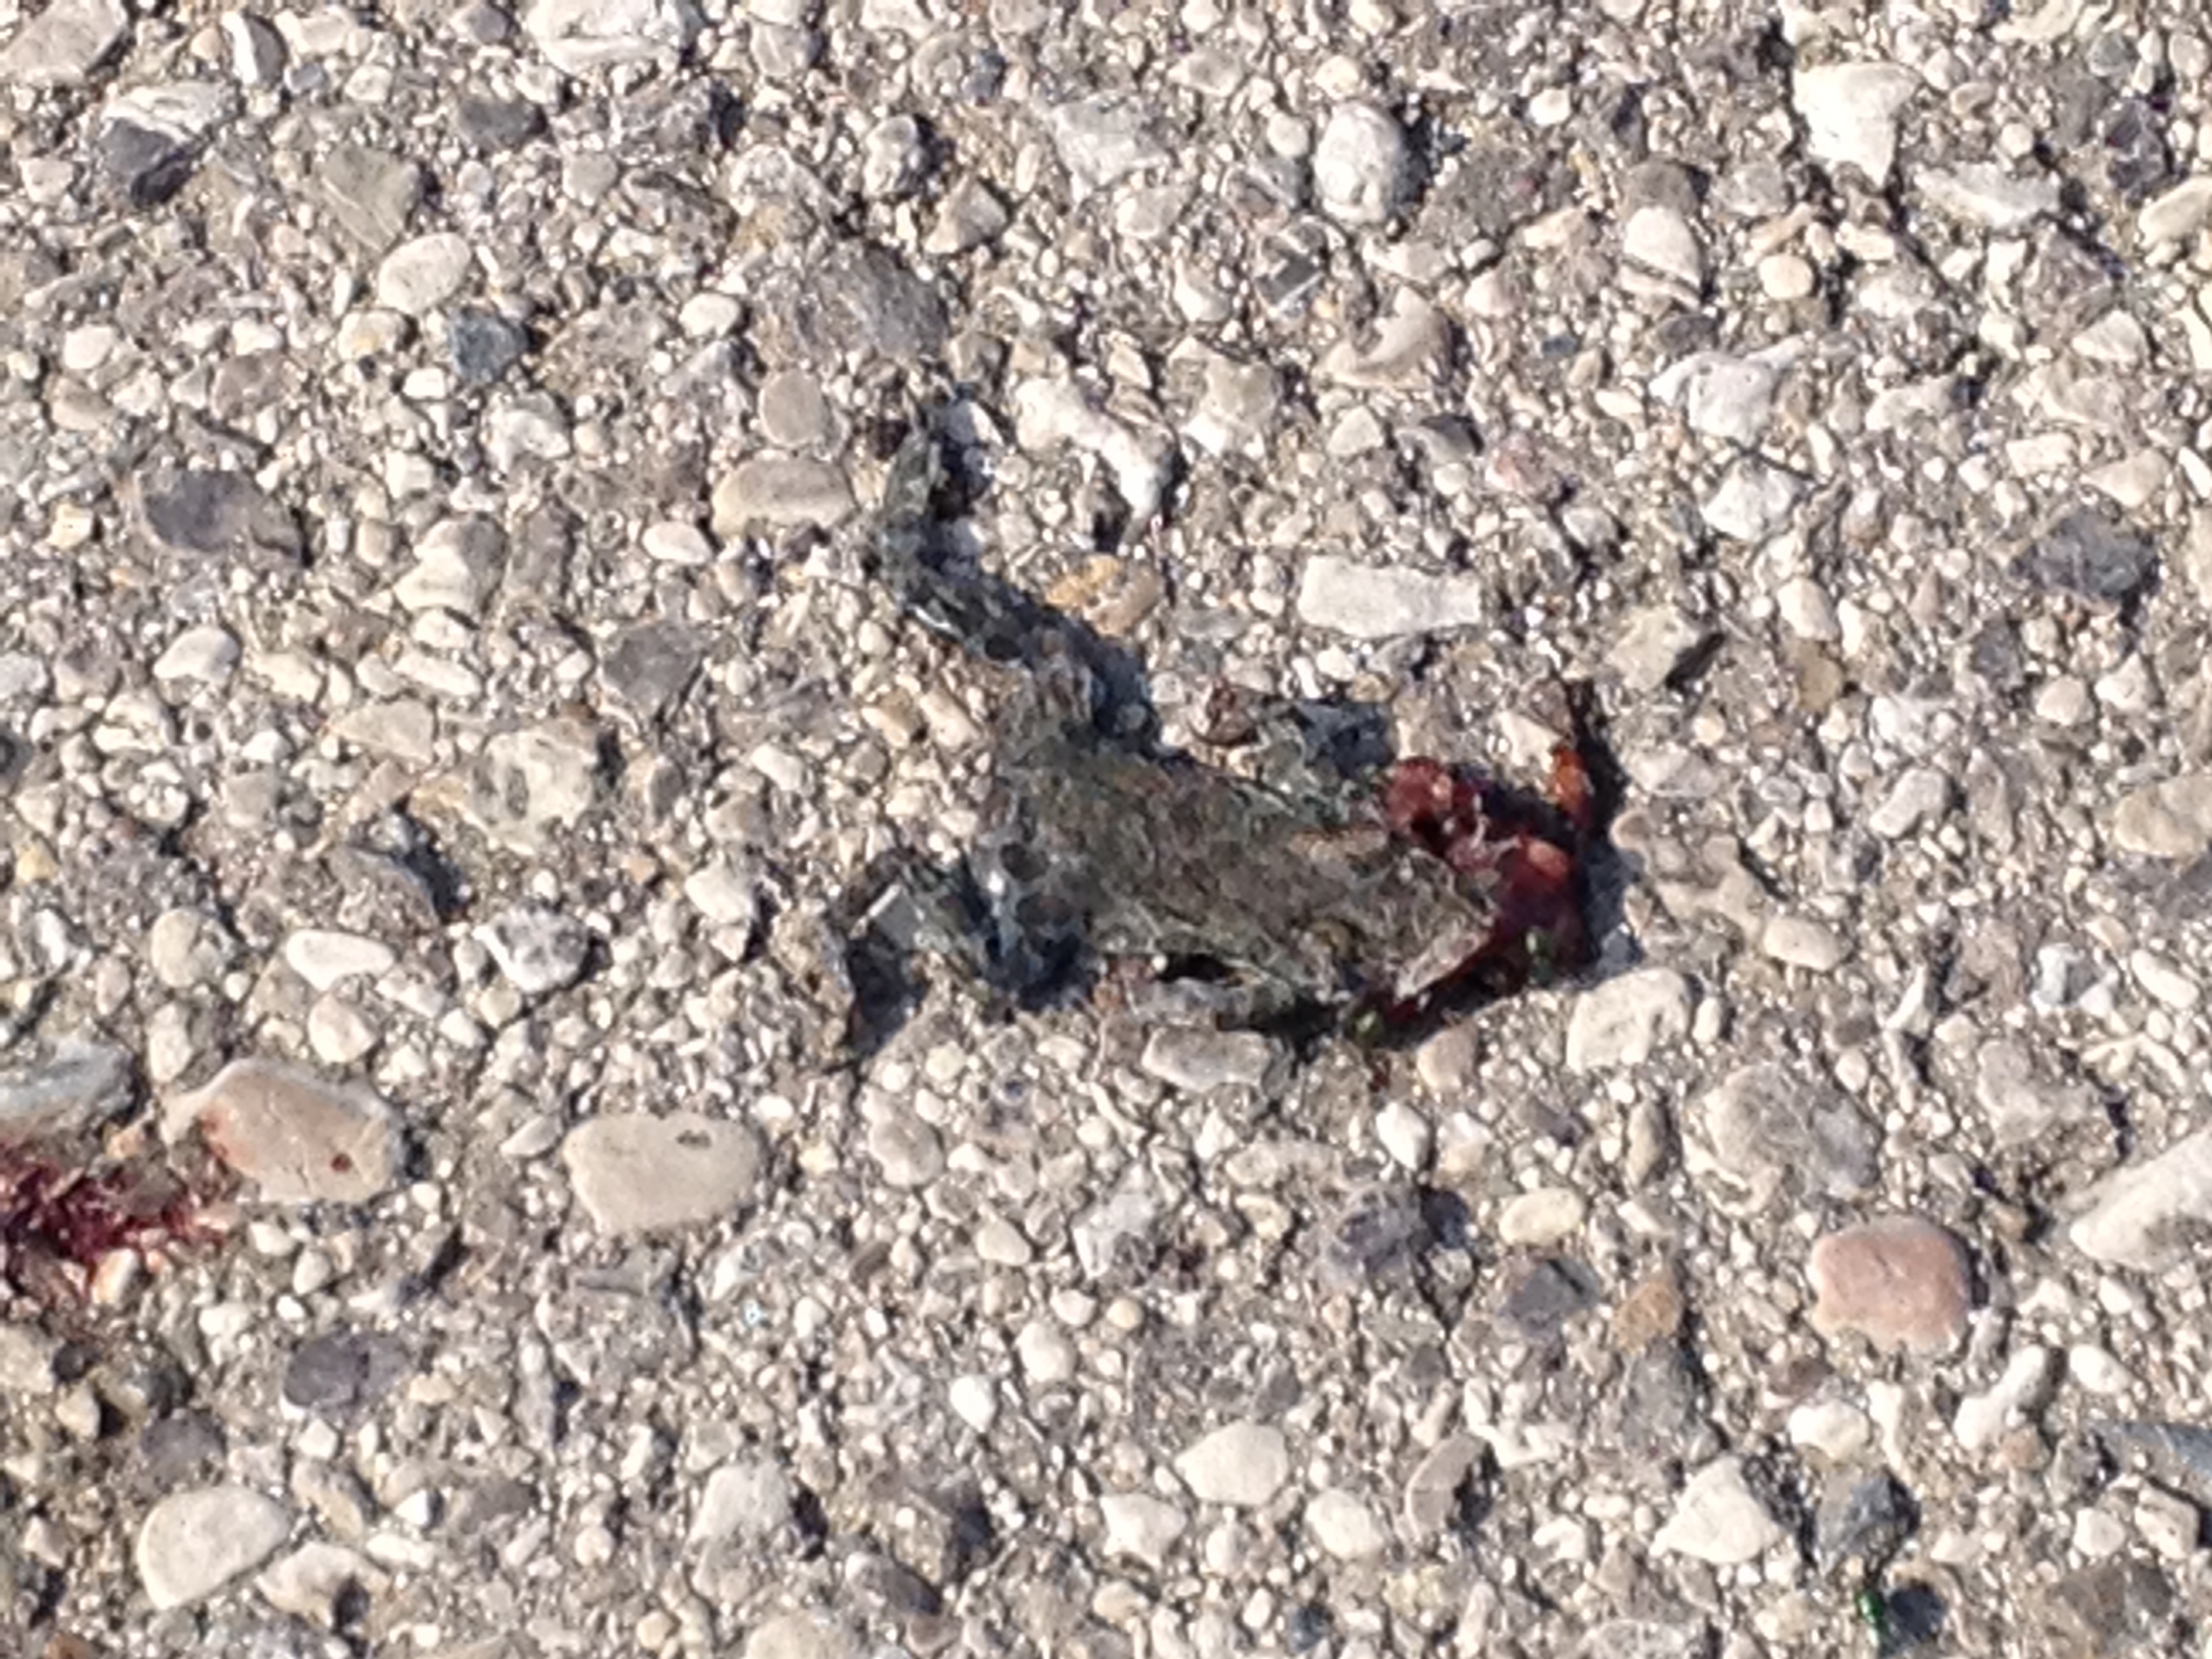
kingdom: Animalia
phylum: Chordata
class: Amphibia
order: Anura
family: Bufonidae
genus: Bufotes
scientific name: Bufotes viridis
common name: European green toad
